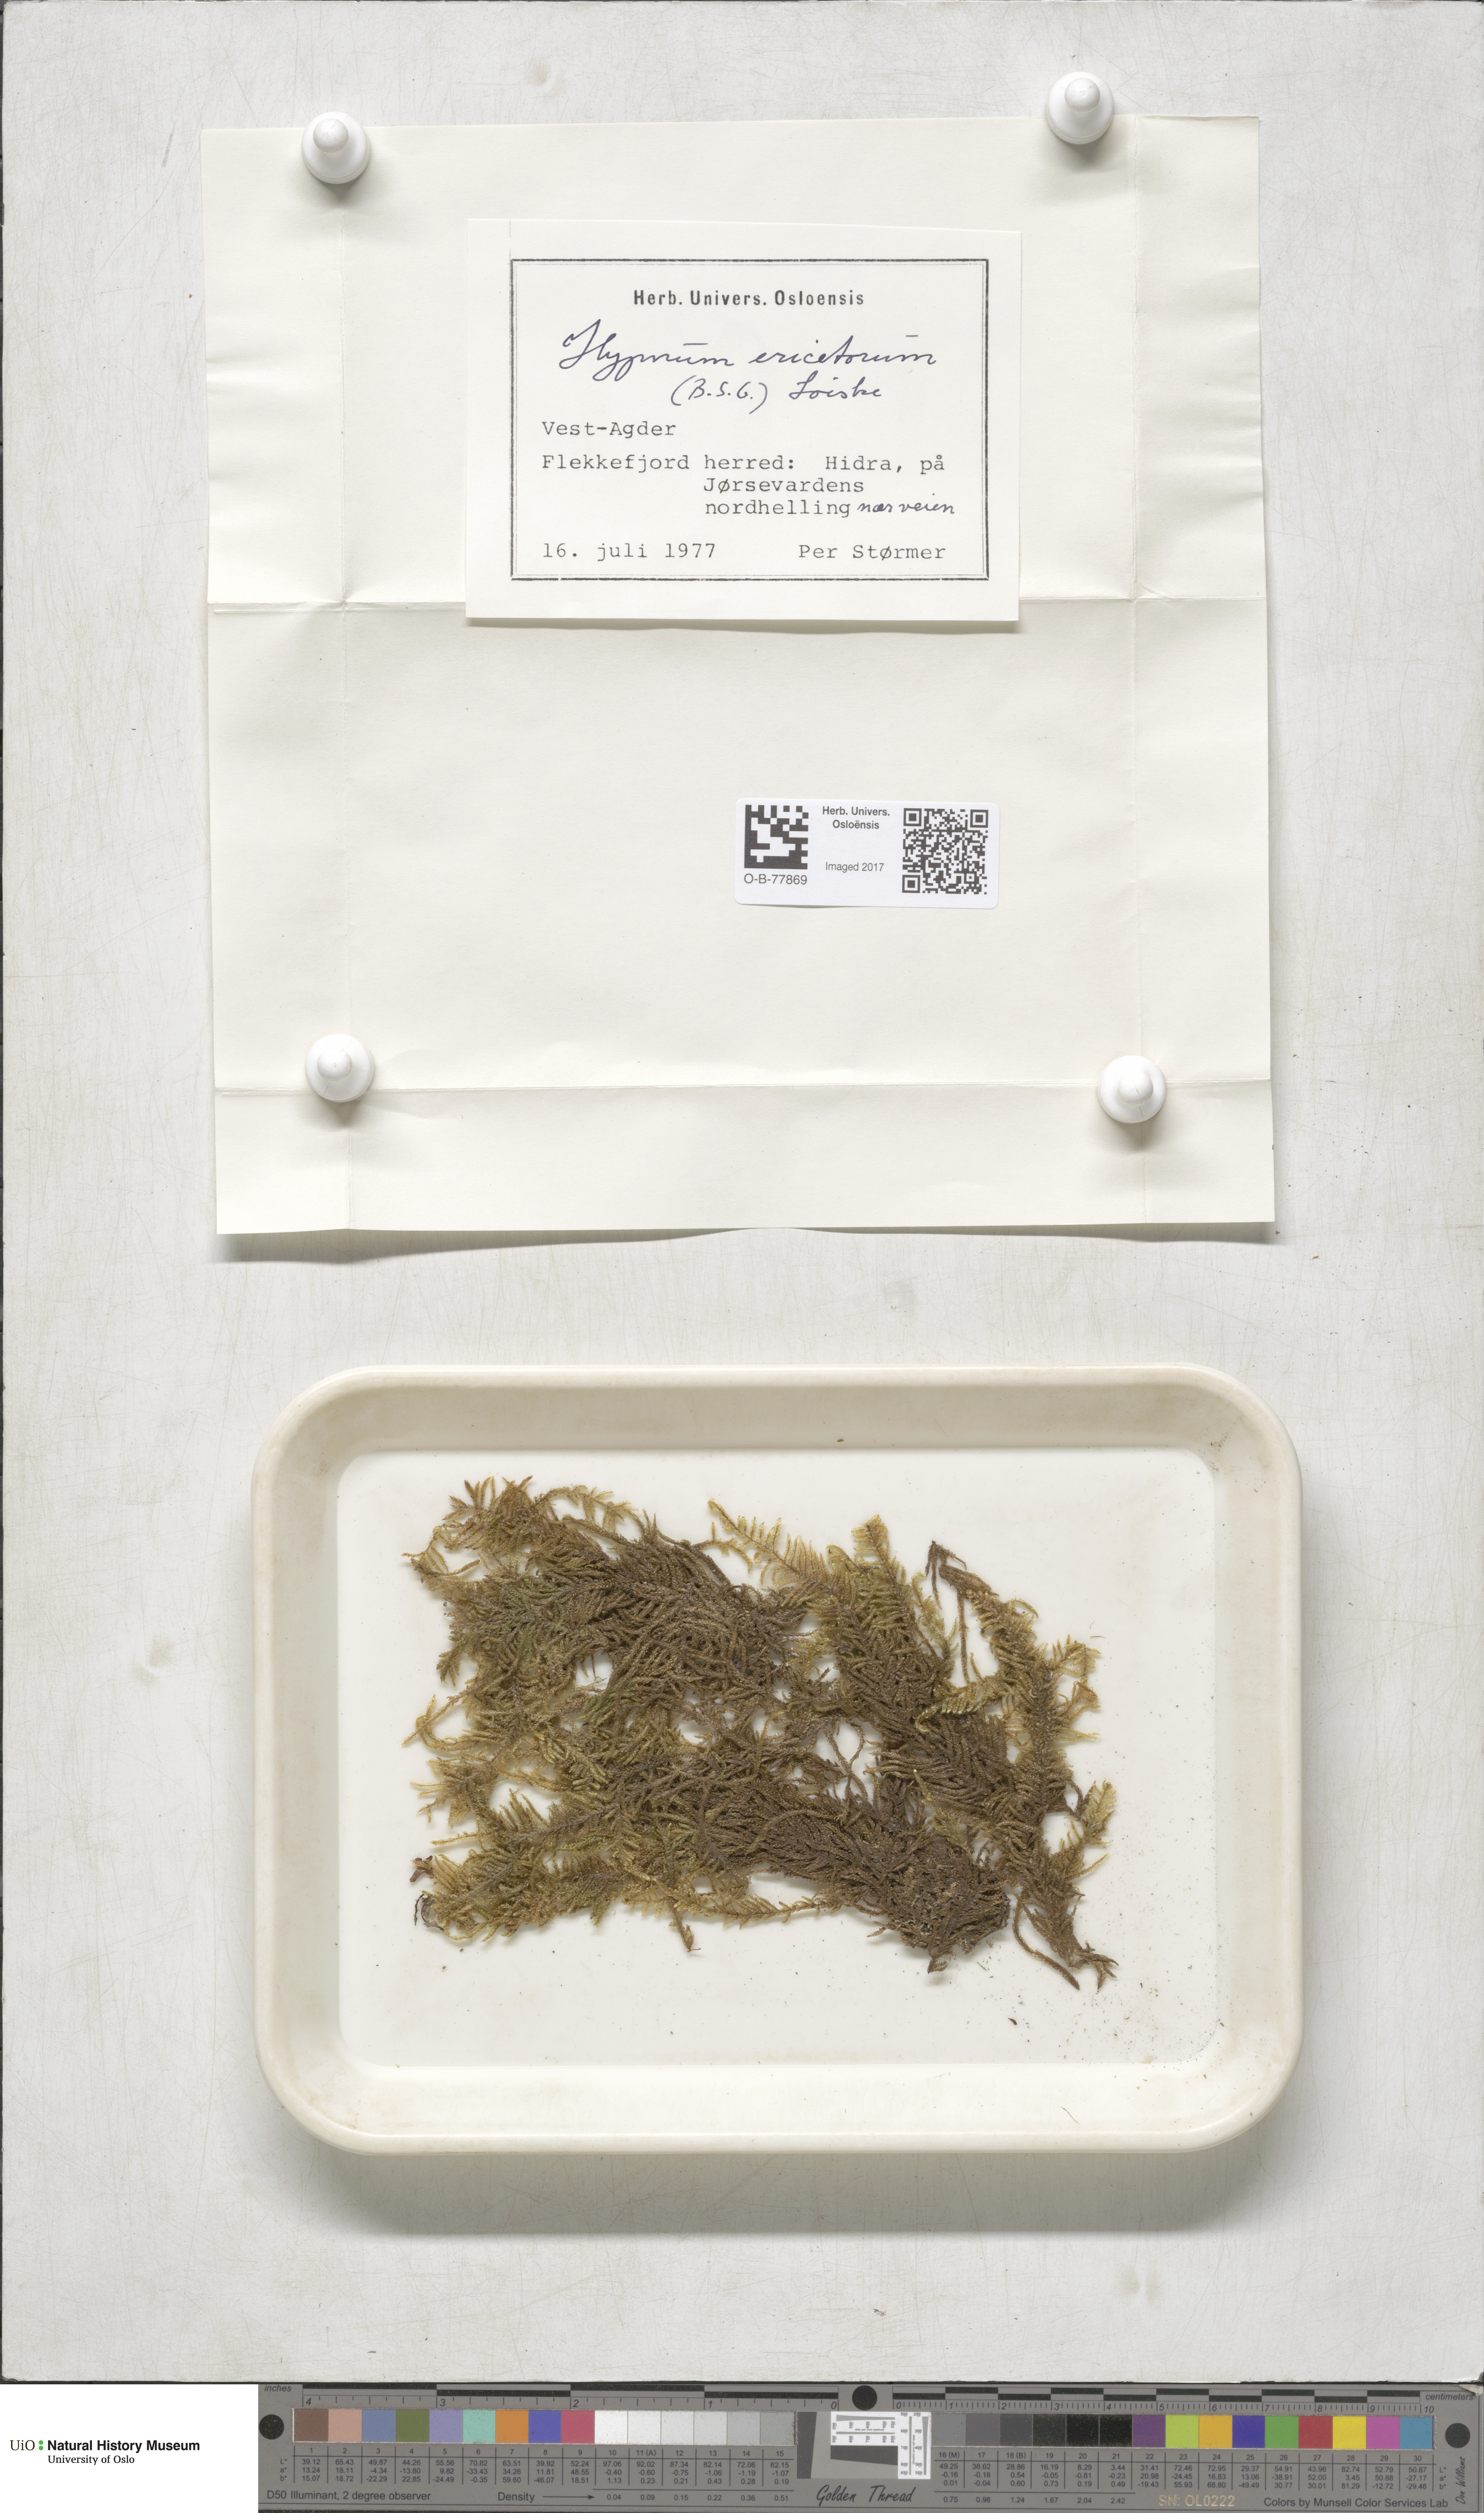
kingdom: Plantae
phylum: Bryophyta
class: Bryopsida
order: Hypnales
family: Hypnaceae
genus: Hypnum
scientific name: Hypnum jutlandicum
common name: Heath plait-moss
